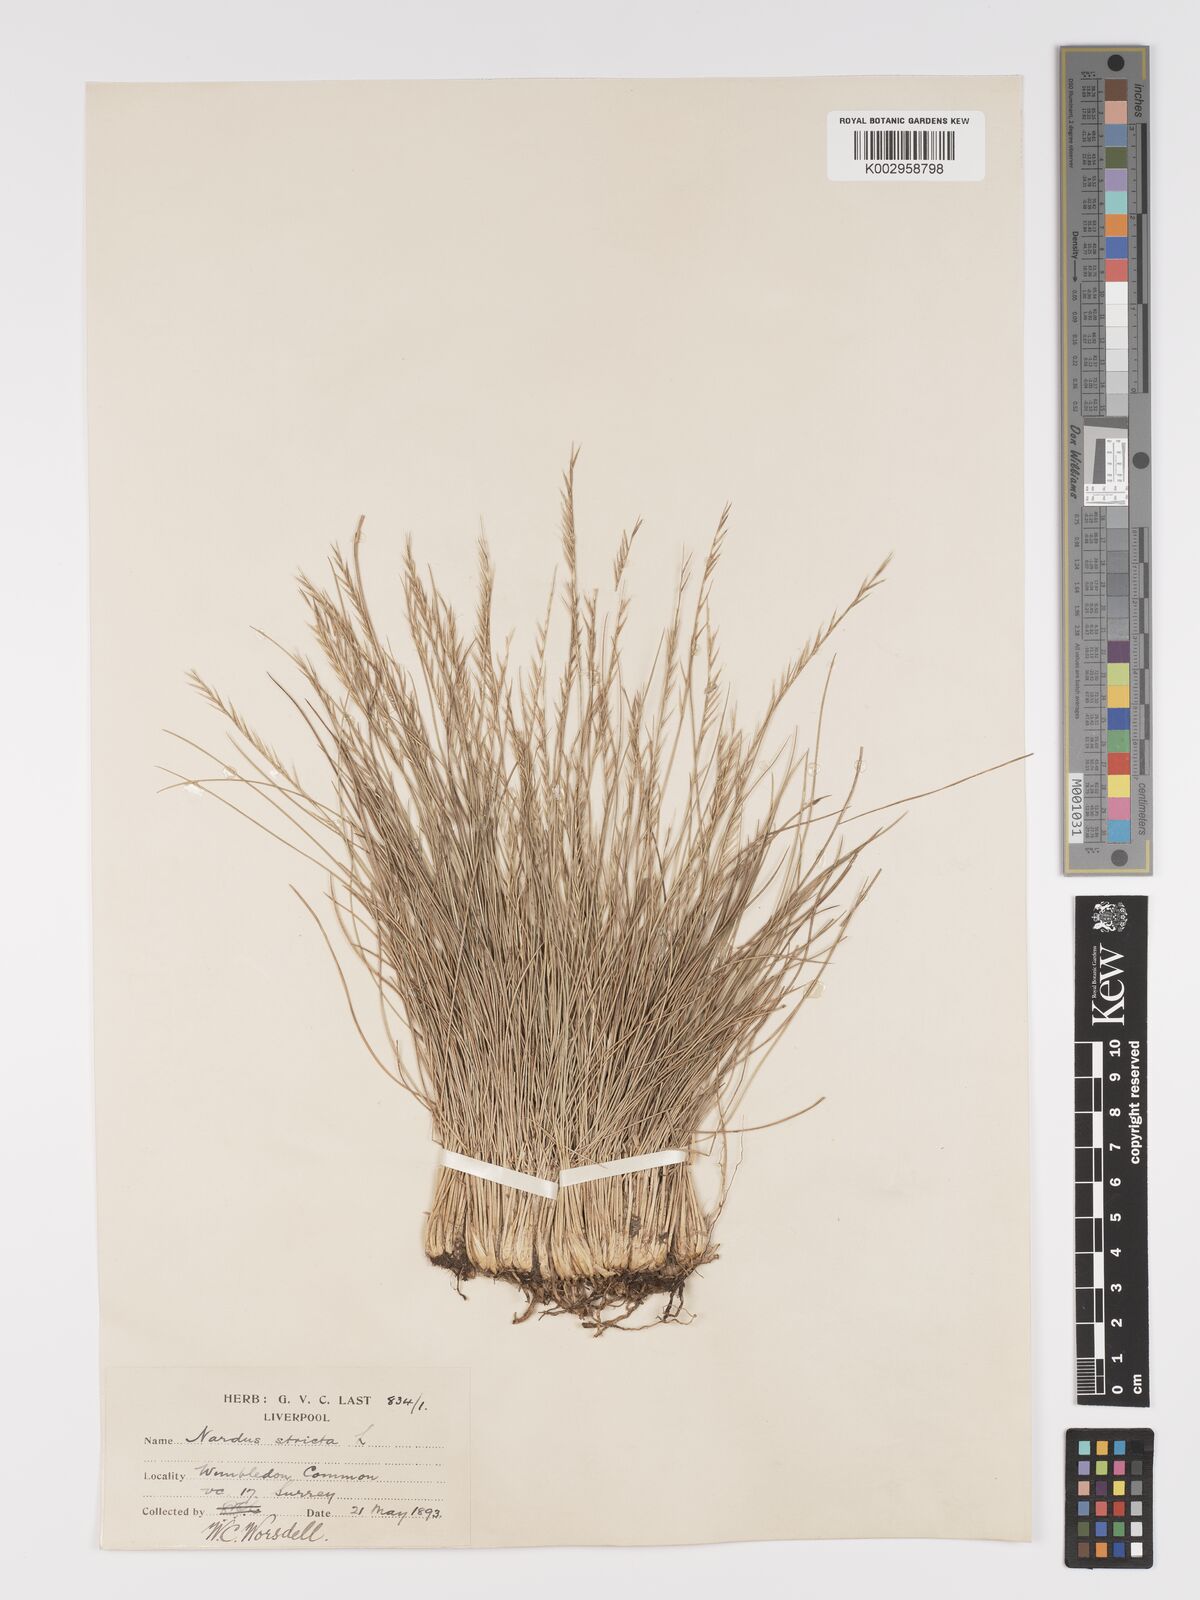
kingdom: Plantae
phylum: Tracheophyta
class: Liliopsida
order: Poales
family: Poaceae
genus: Nardus
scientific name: Nardus stricta
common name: Mat-grass
